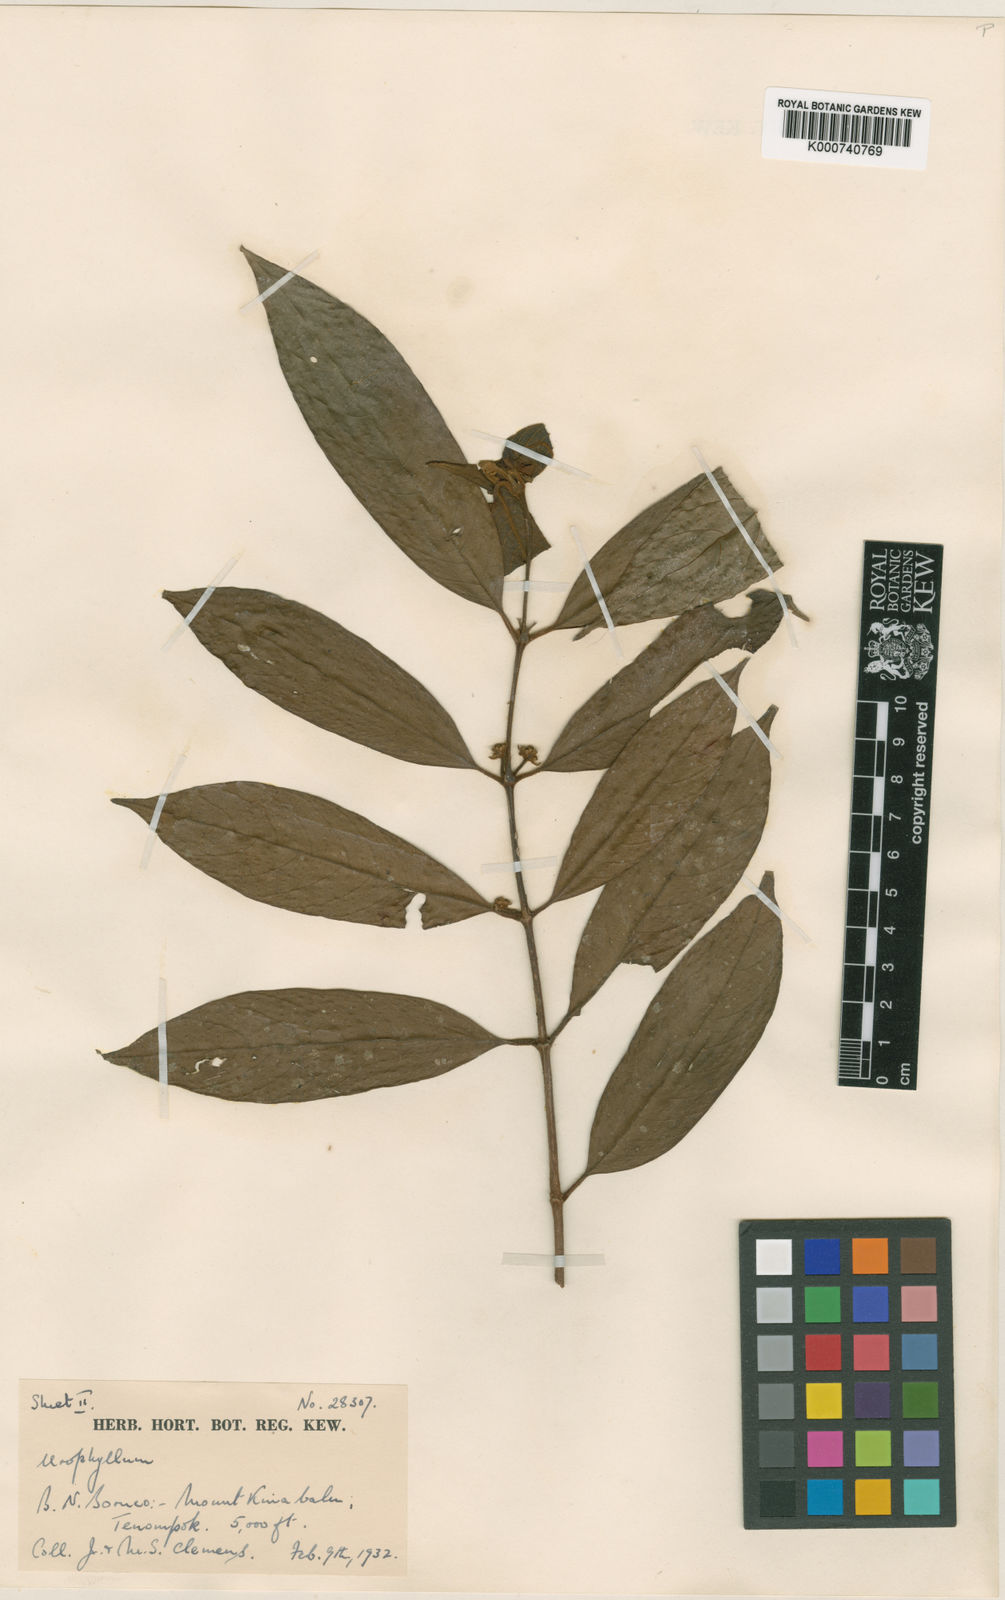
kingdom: Plantae
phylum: Tracheophyta
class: Magnoliopsida
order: Gentianales
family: Rubiaceae
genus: Urophyllum
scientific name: Urophyllum clemensiorum
